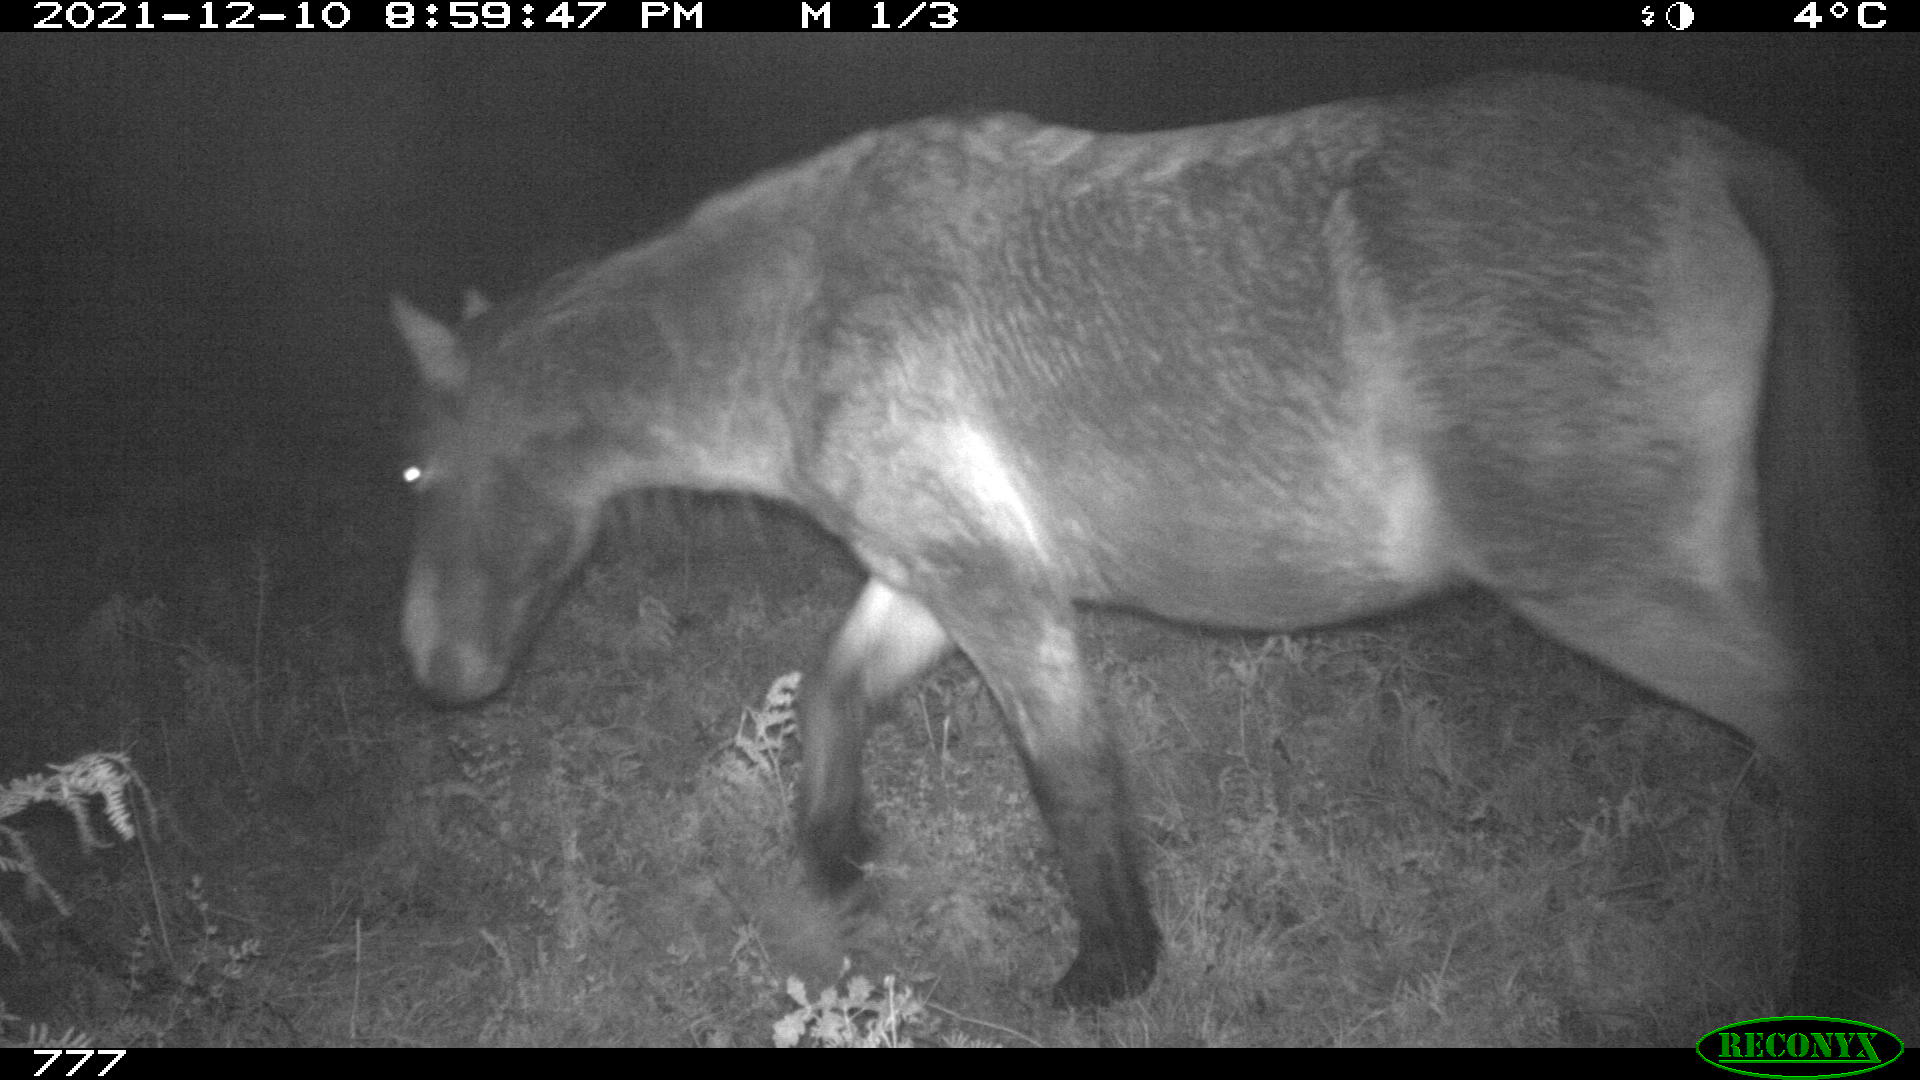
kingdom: Animalia
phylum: Chordata
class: Mammalia
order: Perissodactyla
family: Equidae
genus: Equus
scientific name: Equus caballus
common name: Horse
